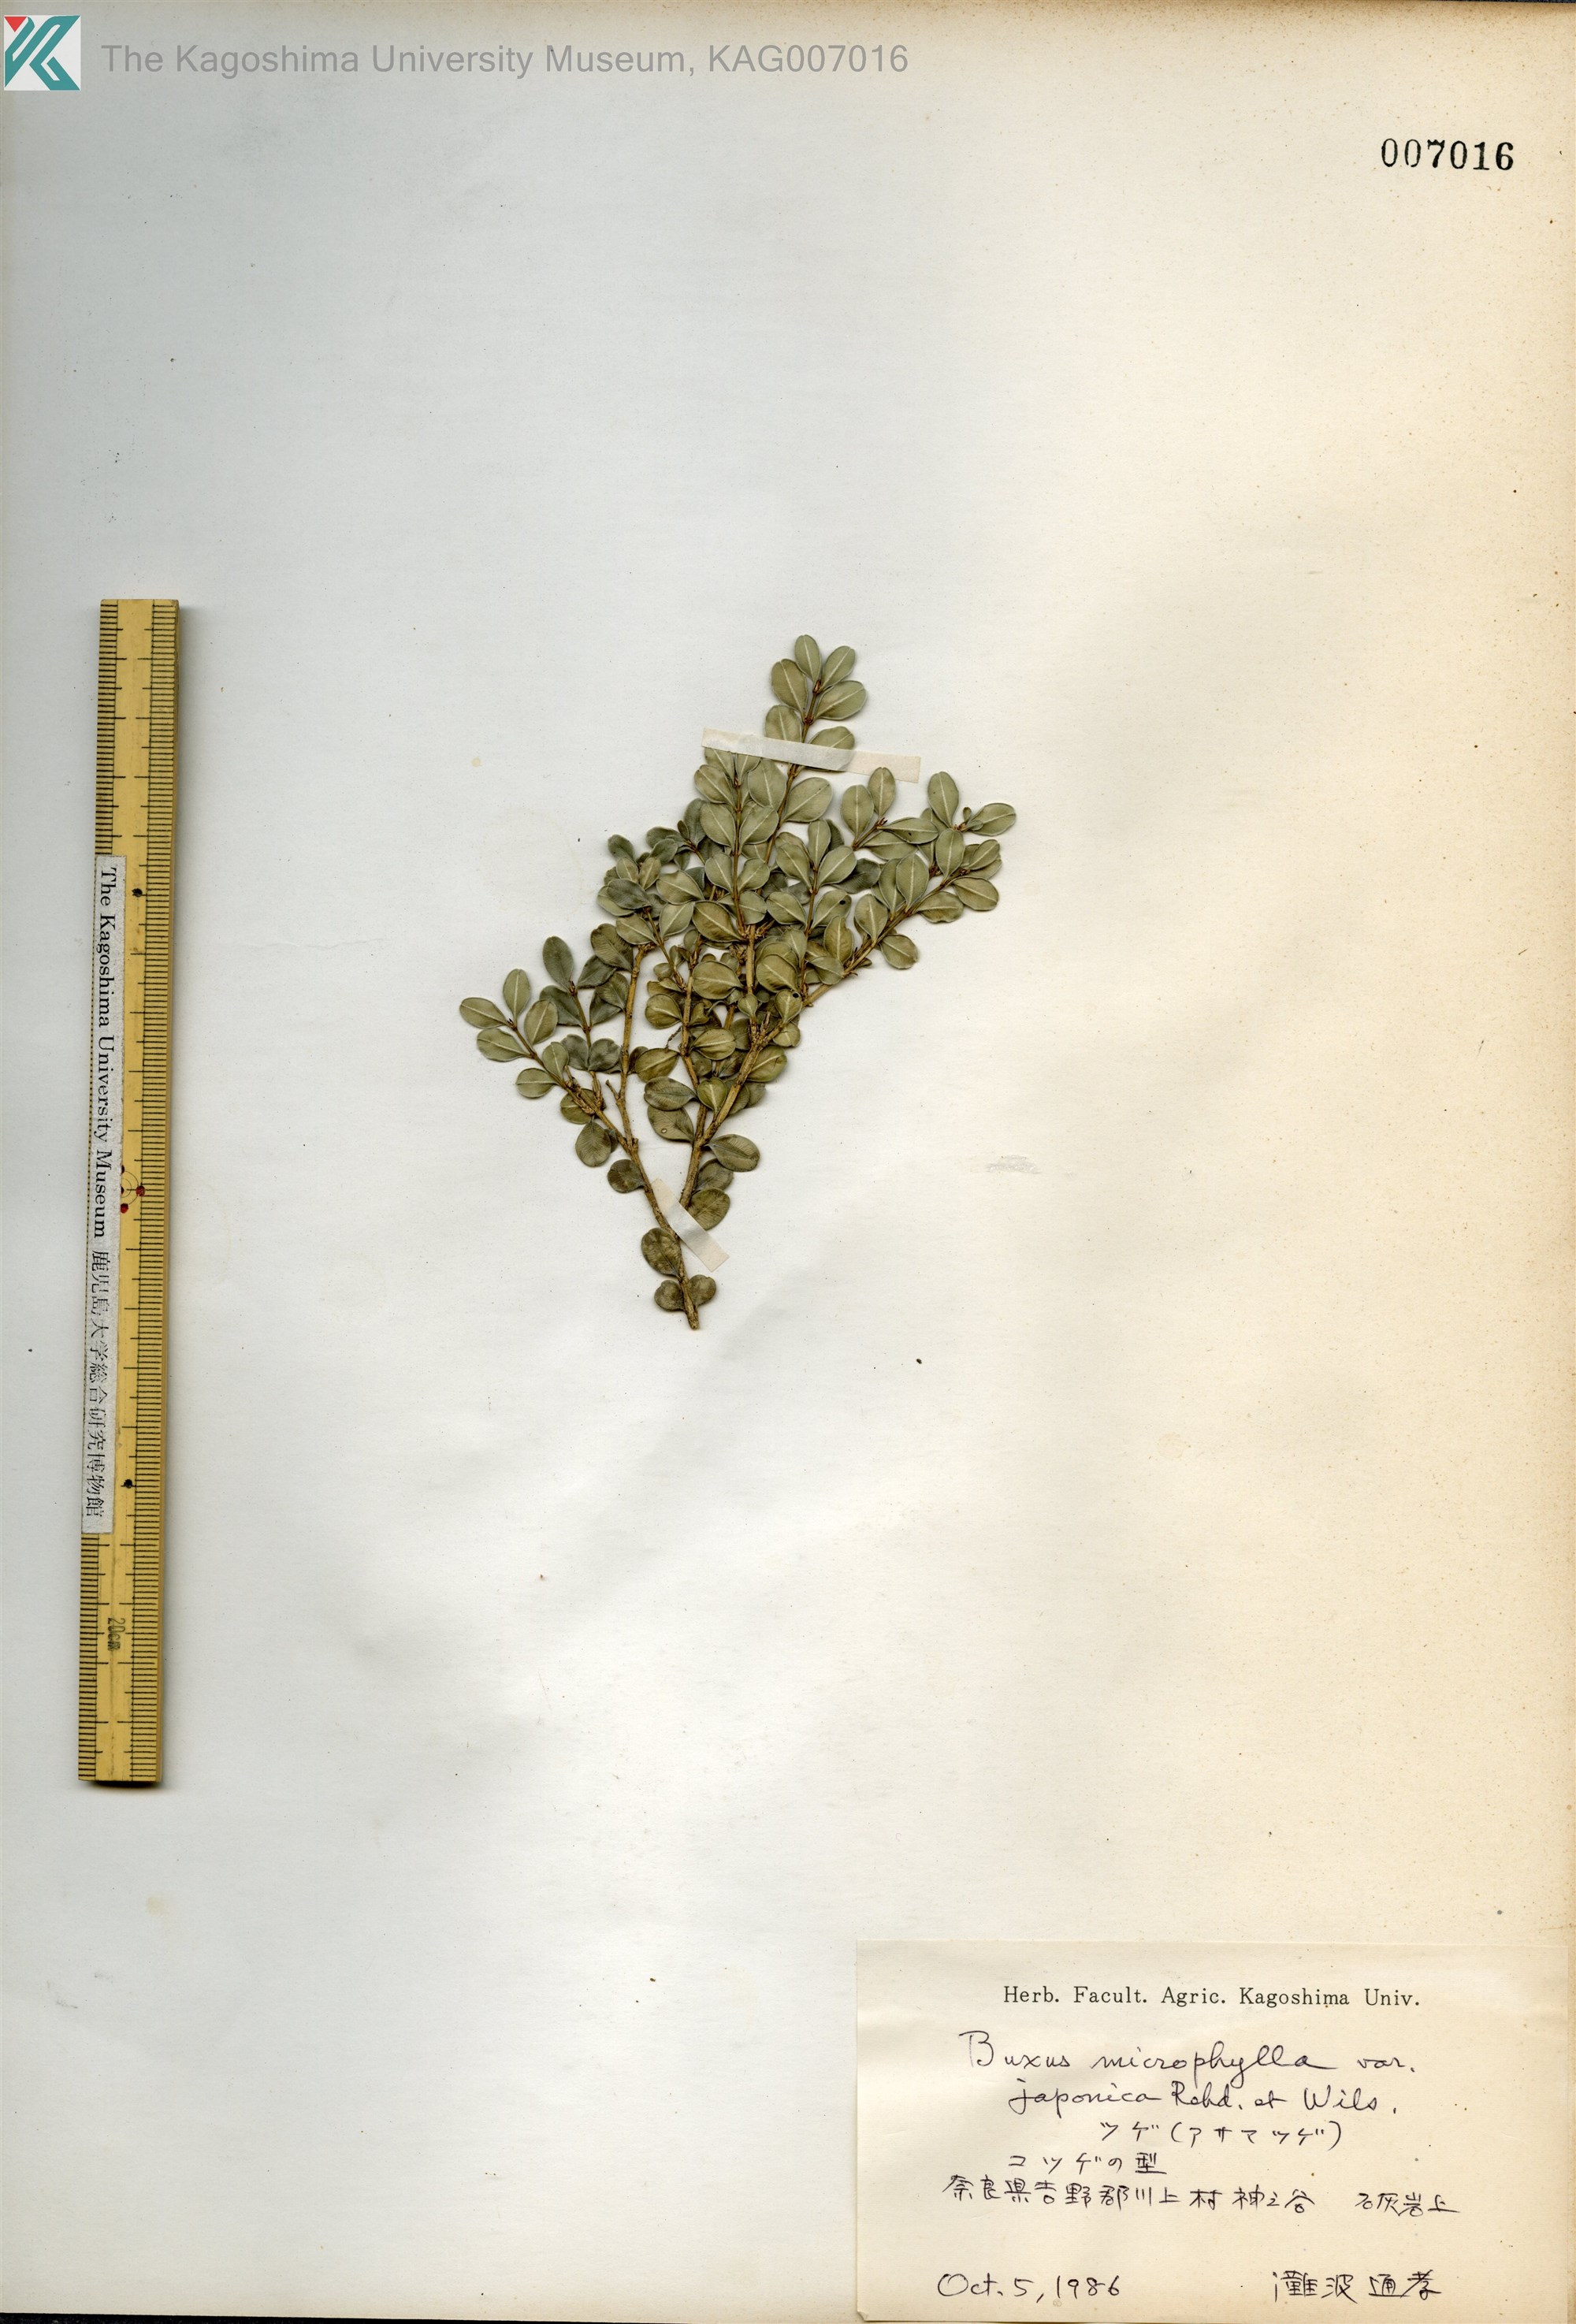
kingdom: Plantae
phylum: Tracheophyta
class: Magnoliopsida
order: Buxales
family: Buxaceae
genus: Buxus
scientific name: Buxus microphylla
